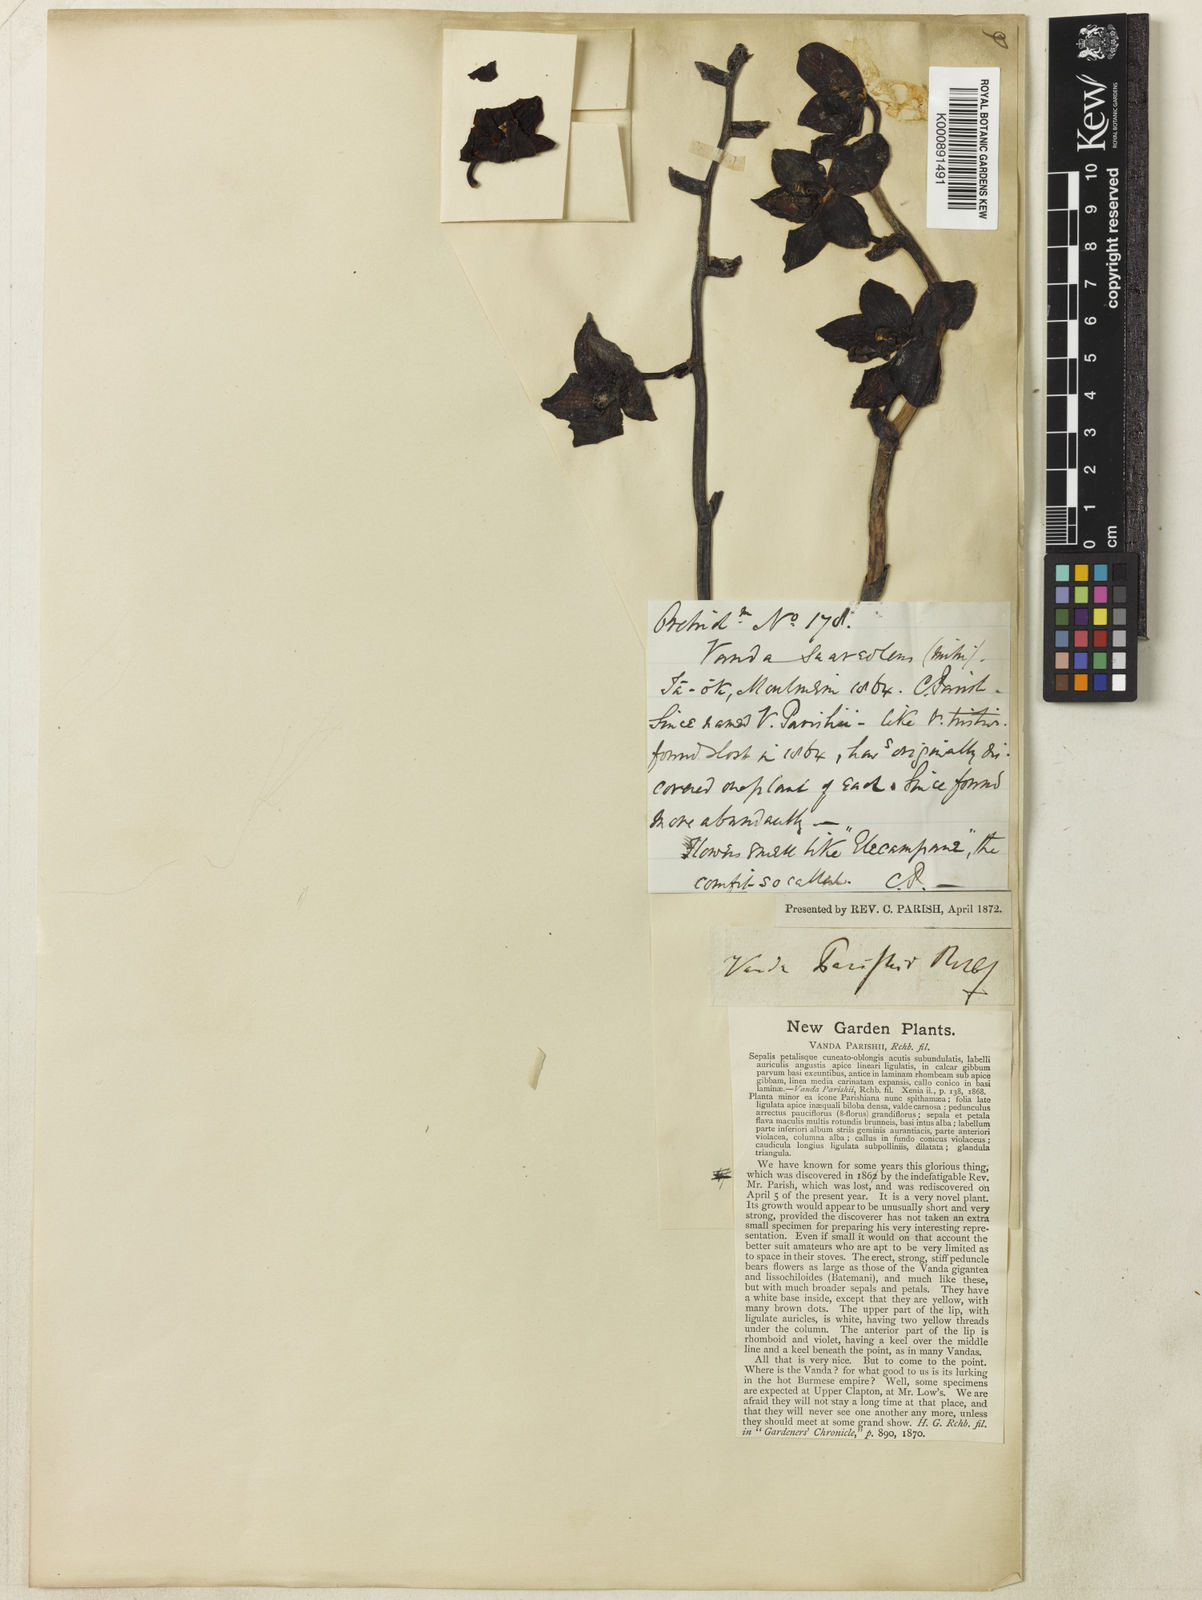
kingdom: Plantae
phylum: Tracheophyta
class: Liliopsida
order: Asparagales
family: Orchidaceae
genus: Phalaenopsis
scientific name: Phalaenopsis hygrochila
